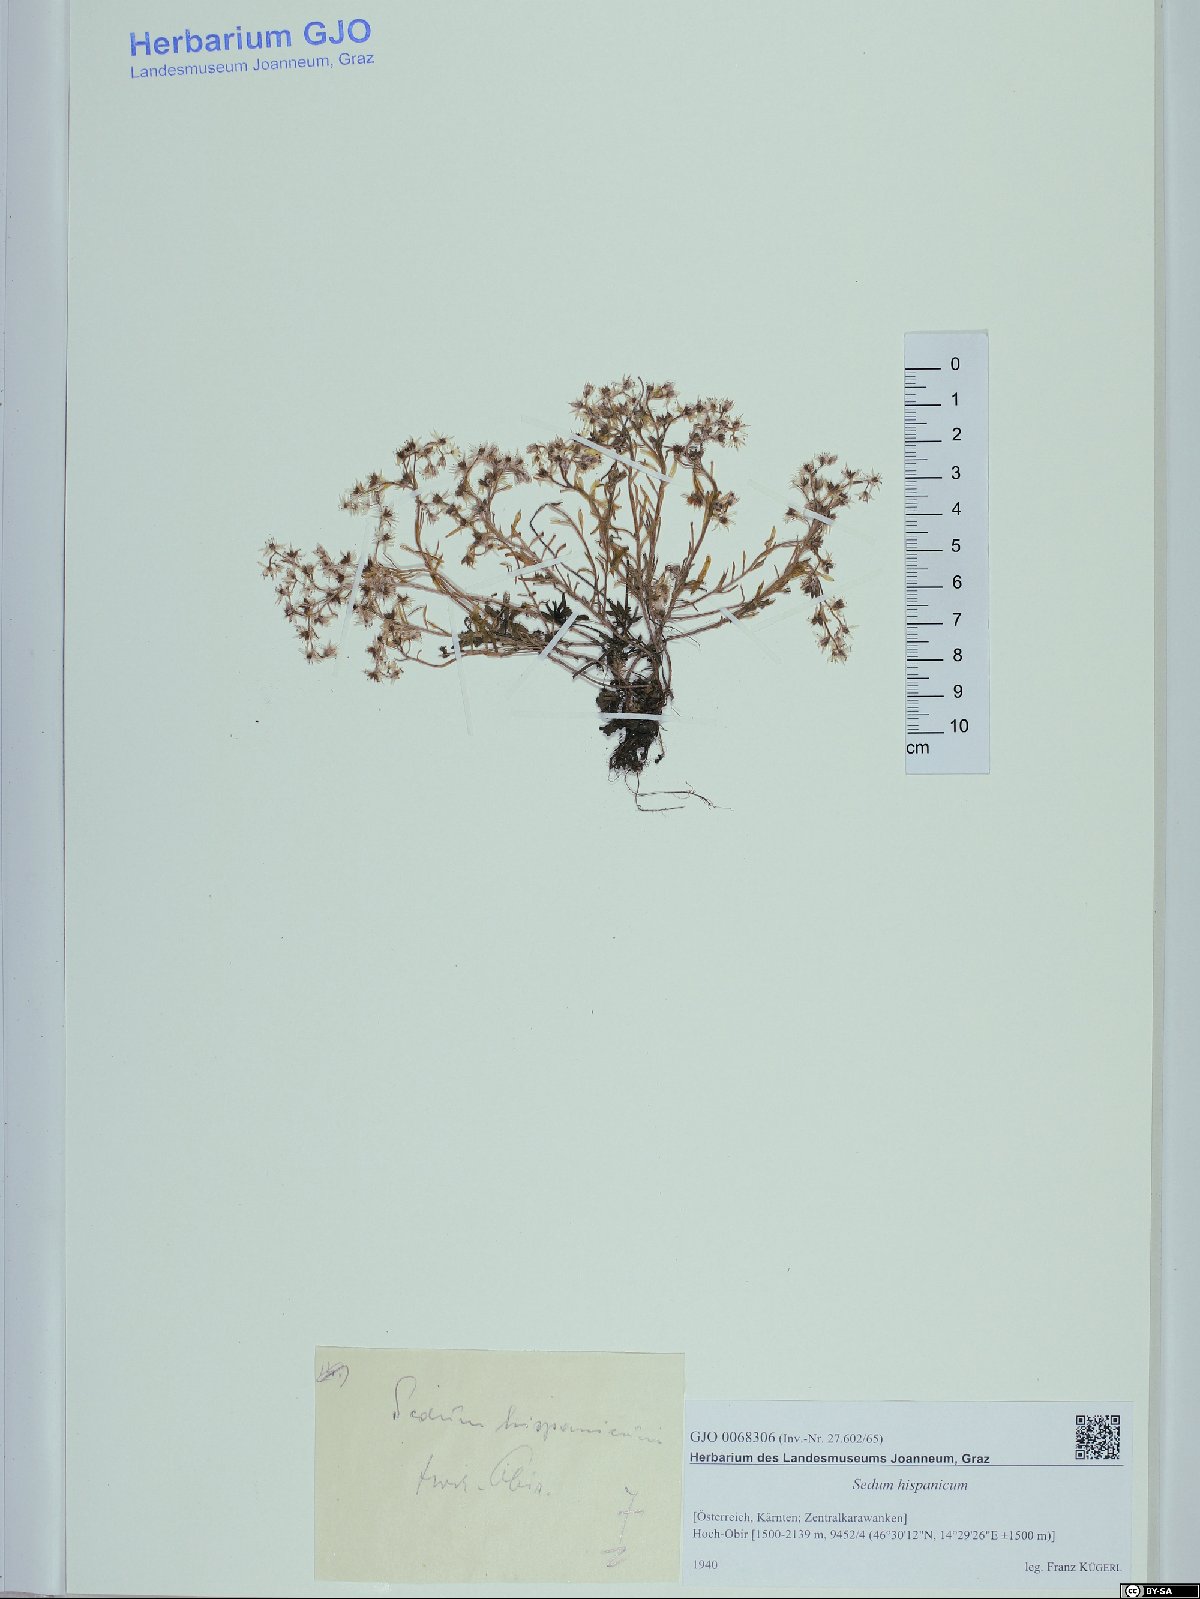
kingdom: Plantae
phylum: Tracheophyta
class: Magnoliopsida
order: Saxifragales
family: Crassulaceae
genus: Sedum
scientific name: Sedum hispanicum
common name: Spanish stonecrop
